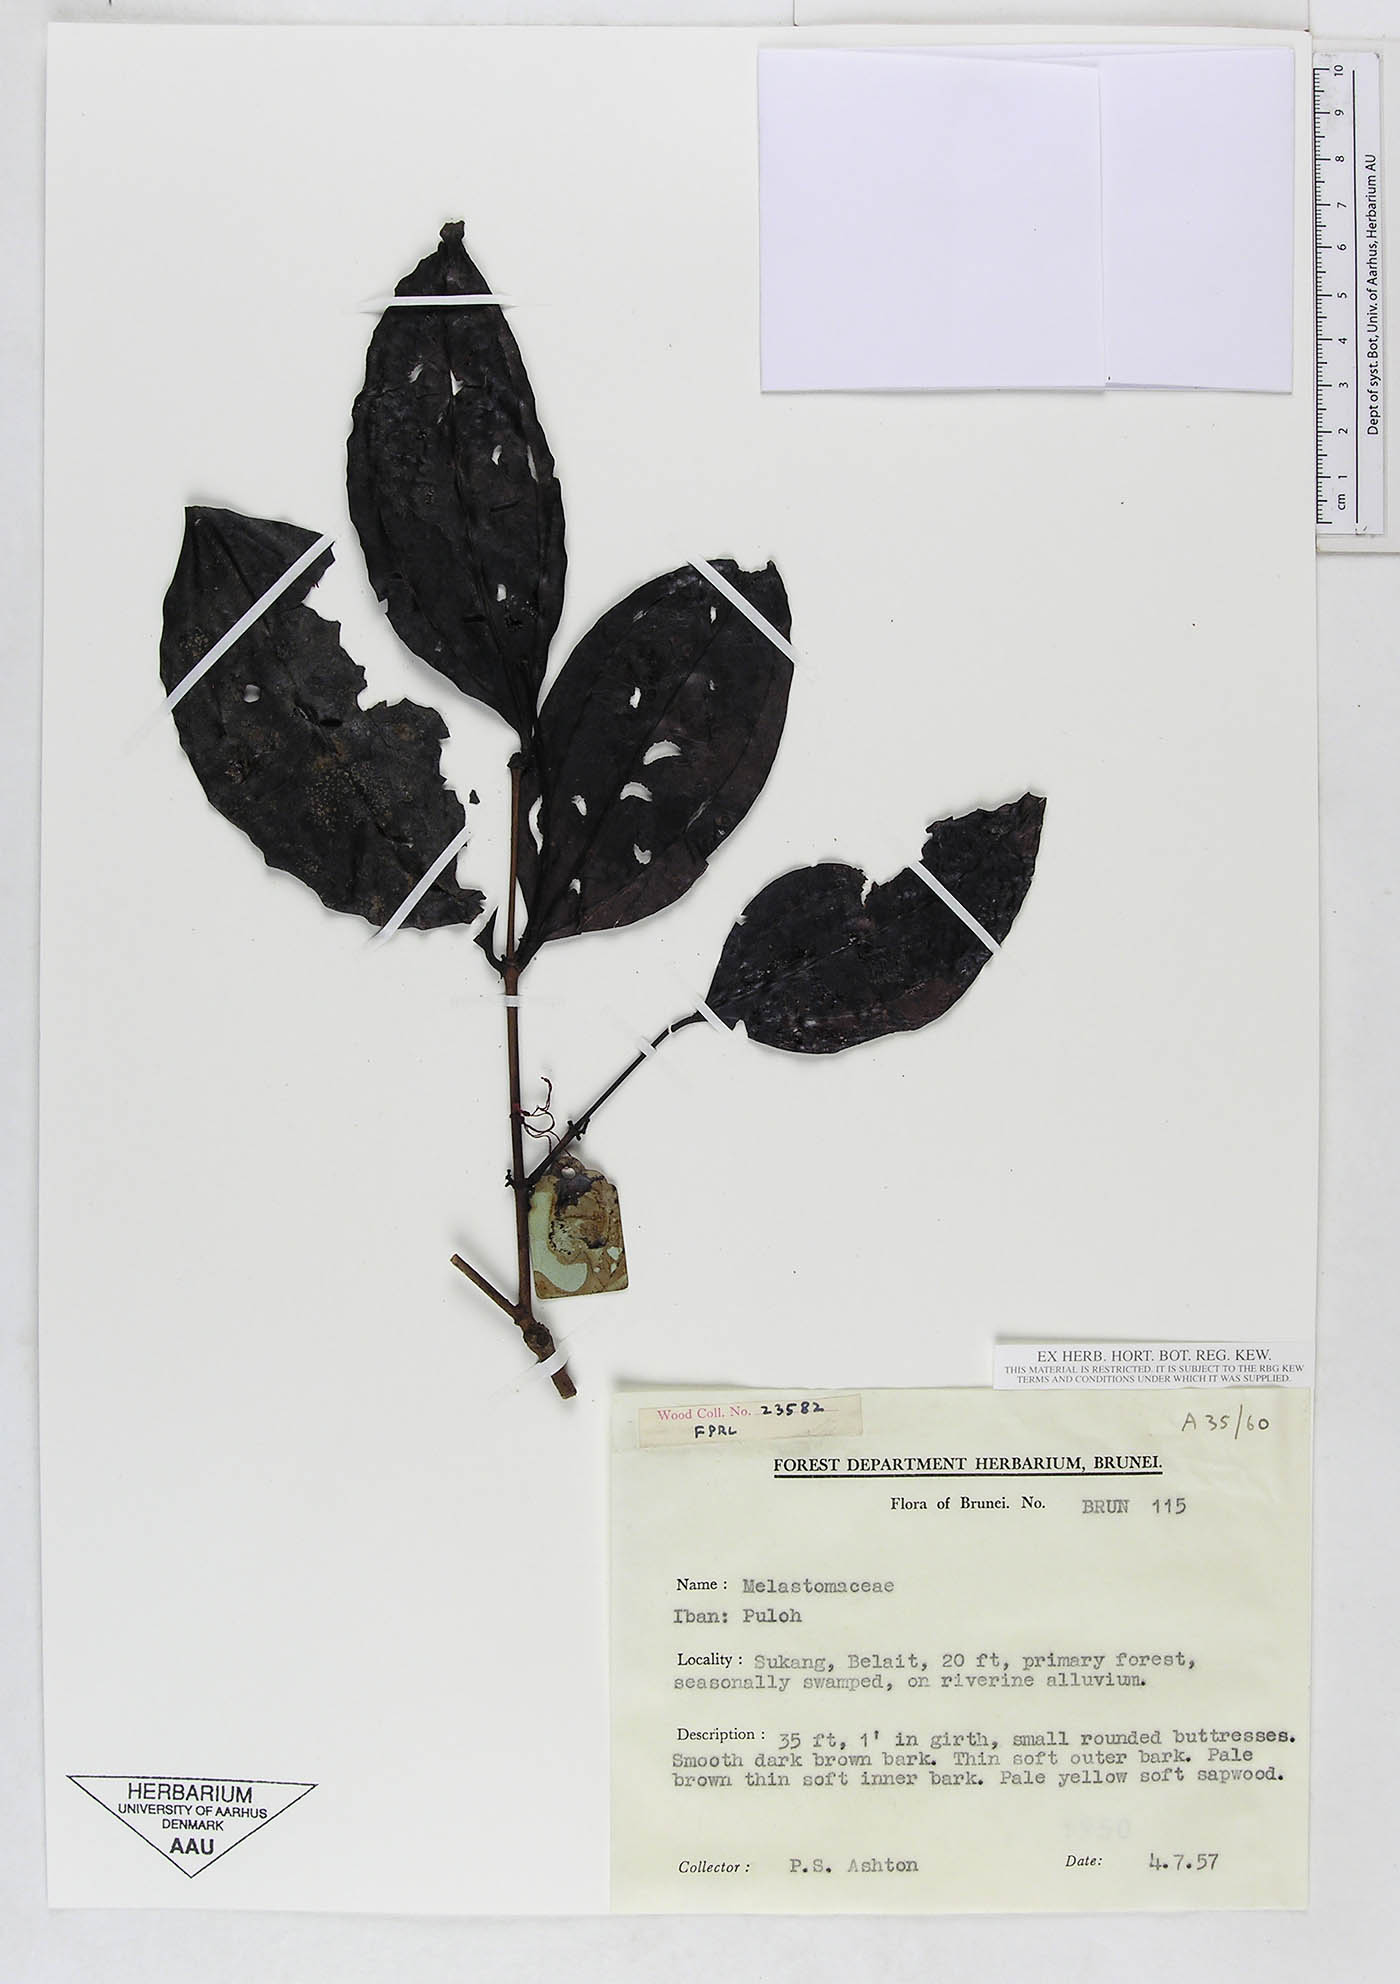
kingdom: Plantae
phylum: Tracheophyta
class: Magnoliopsida
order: Myrtales
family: Melastomataceae
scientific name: Melastomataceae
